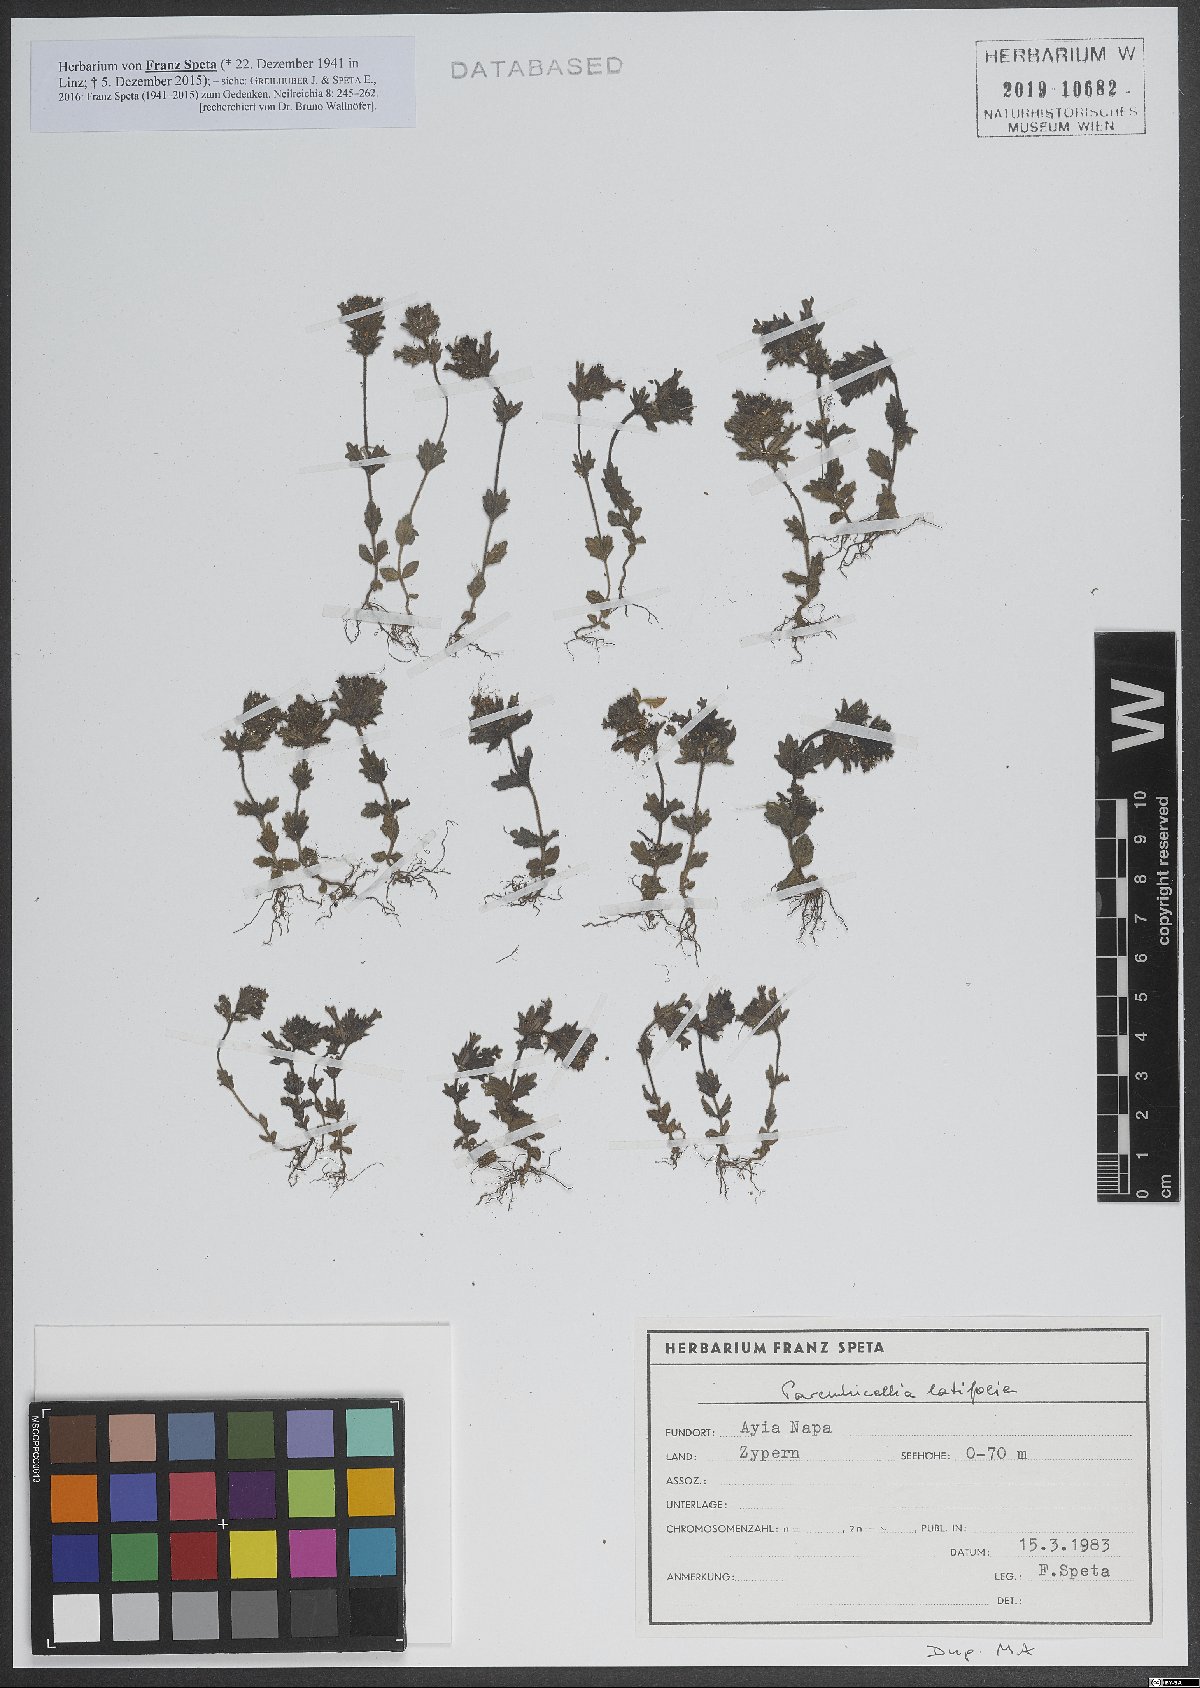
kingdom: Plantae
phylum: Tracheophyta
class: Magnoliopsida
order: Lamiales
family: Orobanchaceae
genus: Parentucellia
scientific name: Parentucellia latifolia
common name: Broadleaf glandweed
